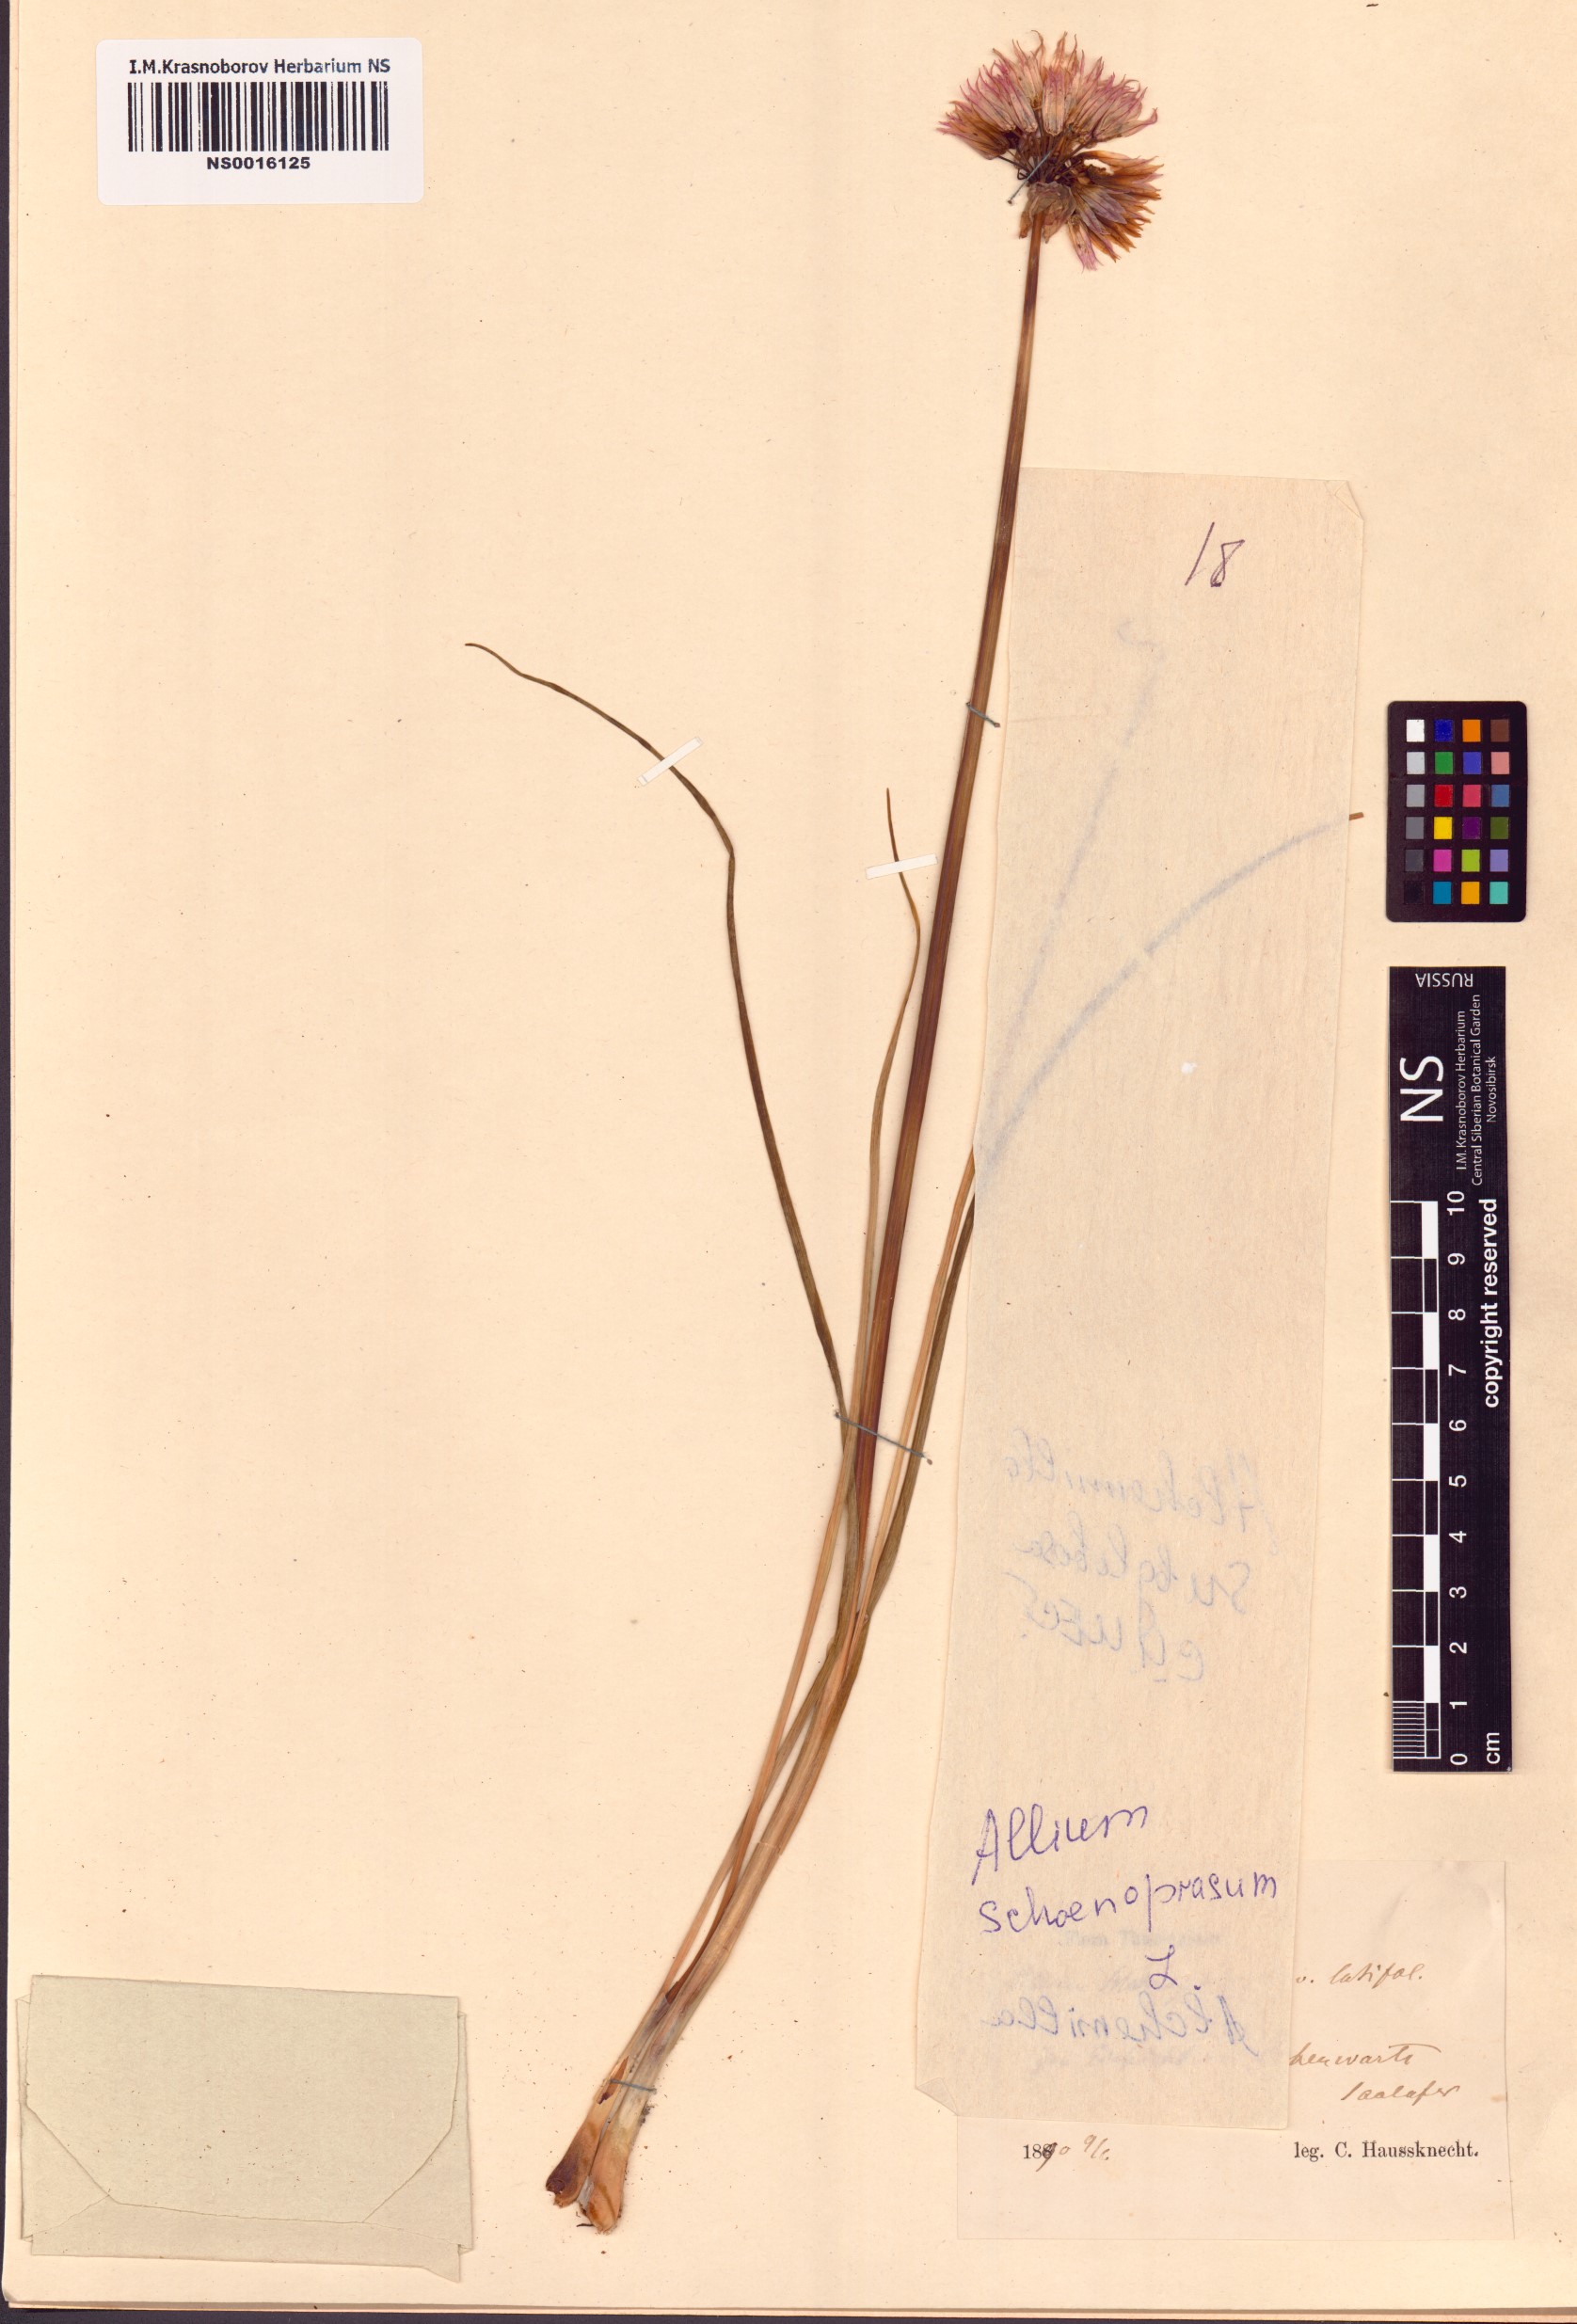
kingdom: Plantae
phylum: Tracheophyta
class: Liliopsida
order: Asparagales
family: Amaryllidaceae
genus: Allium
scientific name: Allium schoenoprasum
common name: Chives
